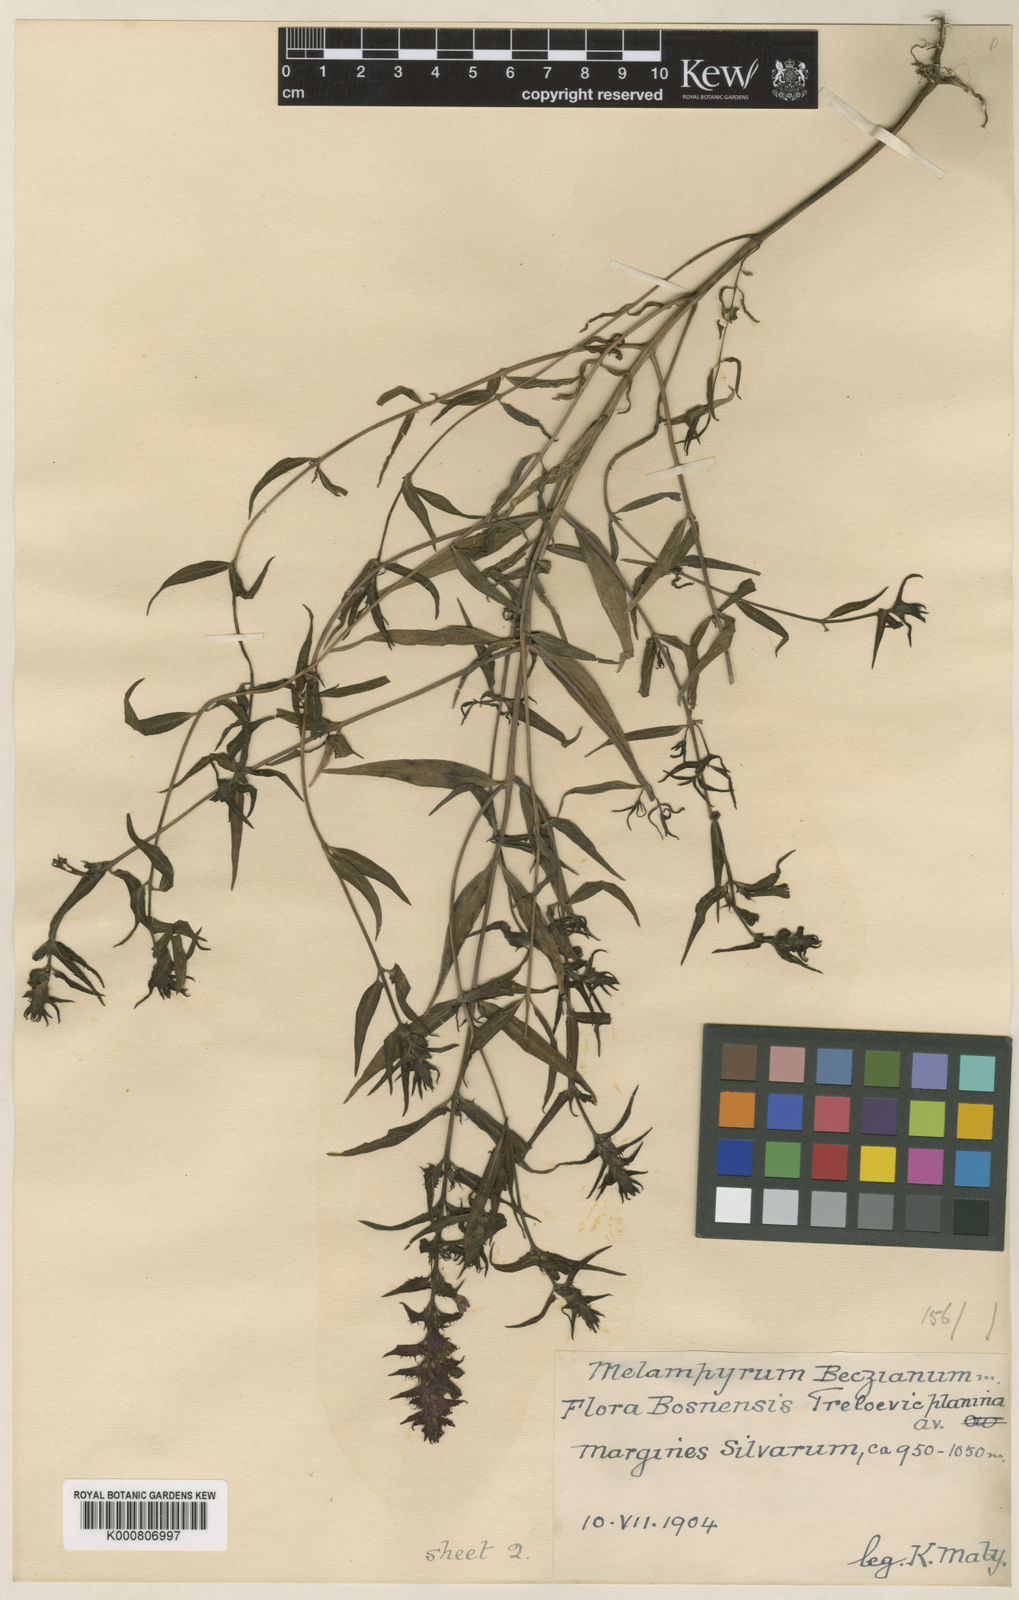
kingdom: Plantae
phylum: Tracheophyta
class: Magnoliopsida
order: Lamiales
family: Orobanchaceae
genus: Melampyrum
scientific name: Melampyrum hoermannianum
